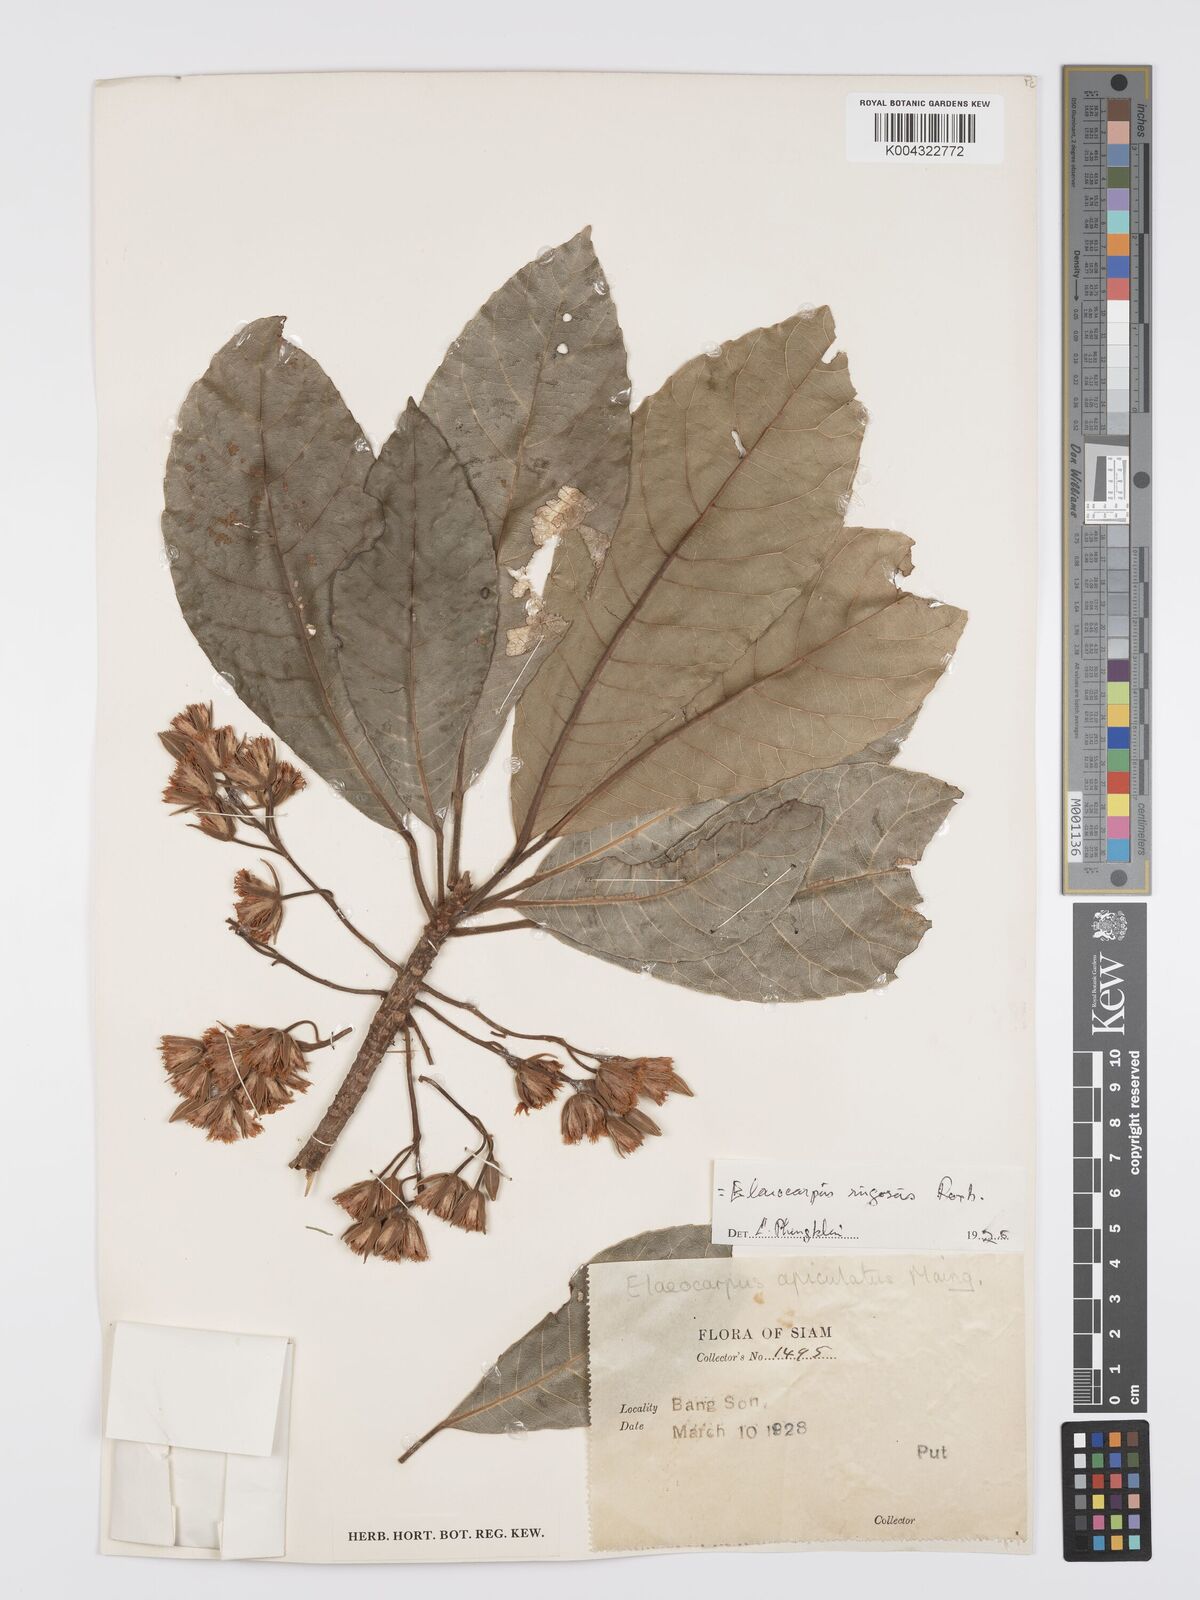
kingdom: Plantae
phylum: Tracheophyta
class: Magnoliopsida
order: Oxalidales
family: Elaeocarpaceae
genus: Elaeocarpus
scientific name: Elaeocarpus rugosus
